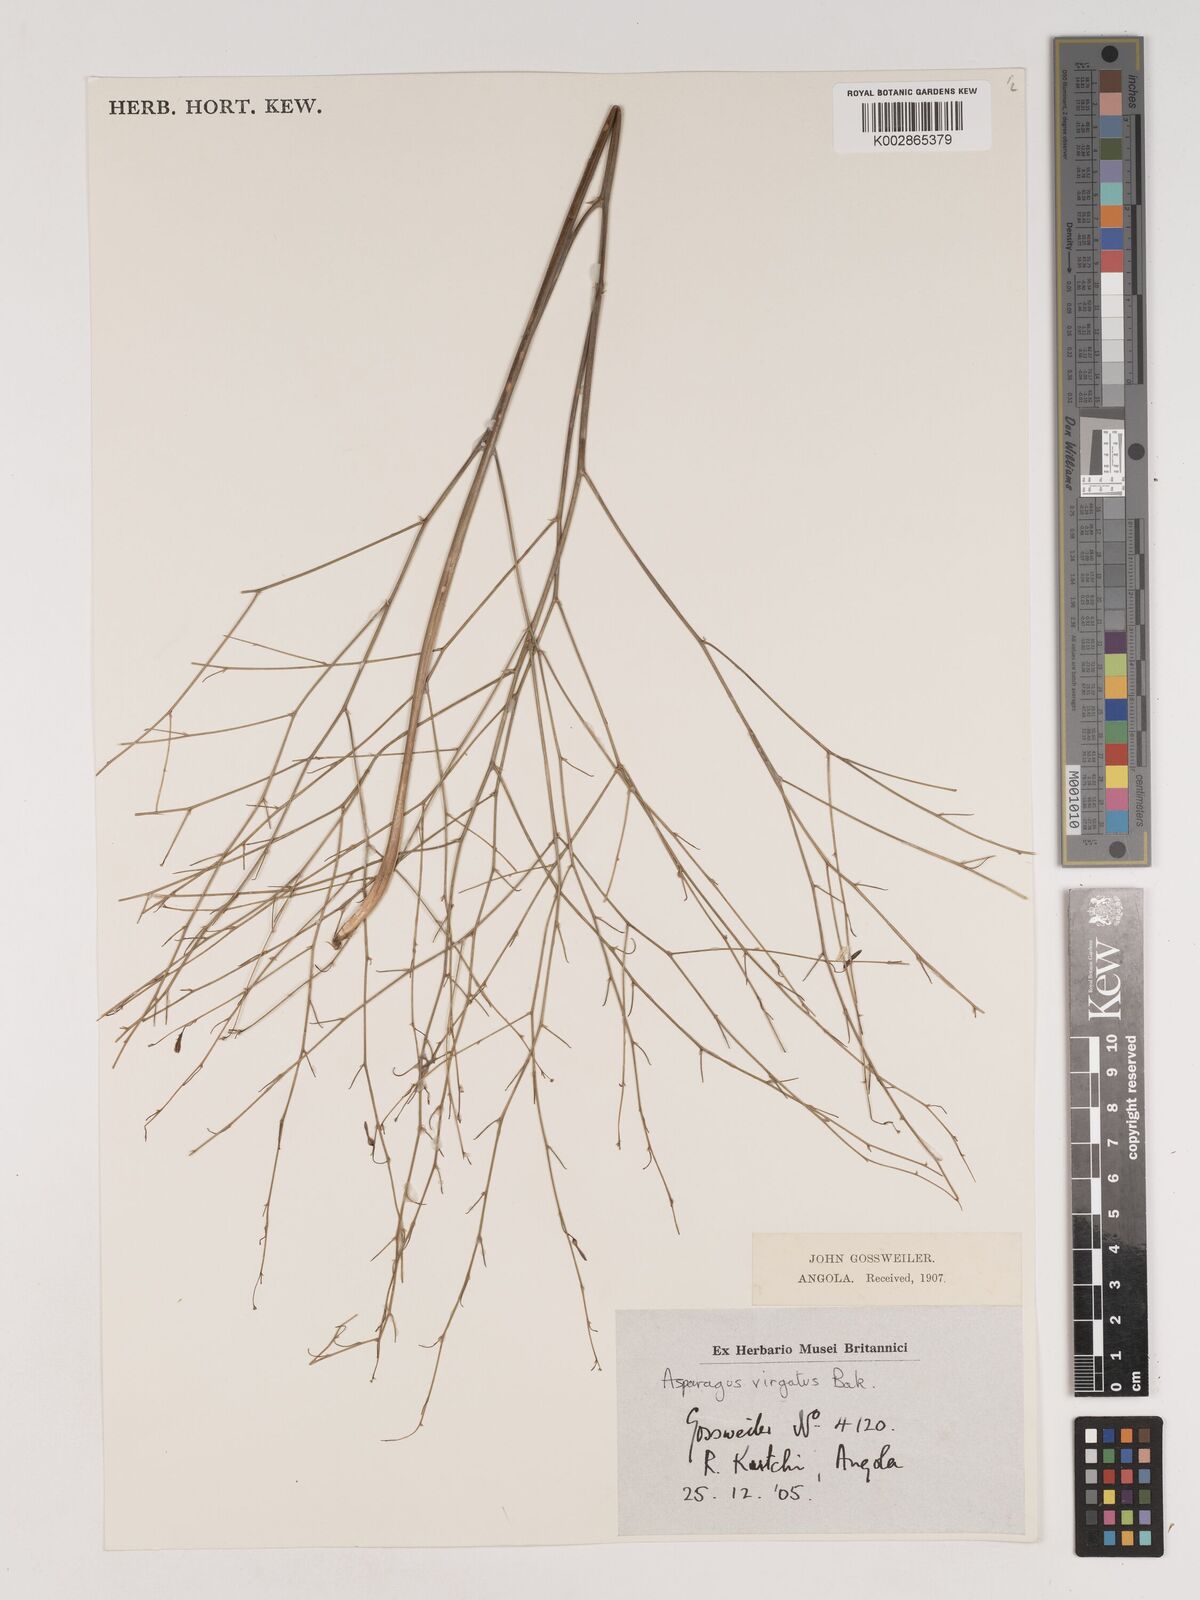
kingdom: Plantae
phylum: Tracheophyta
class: Liliopsida
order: Asparagales
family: Asparagaceae
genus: Asparagus
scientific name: Asparagus virgatus
